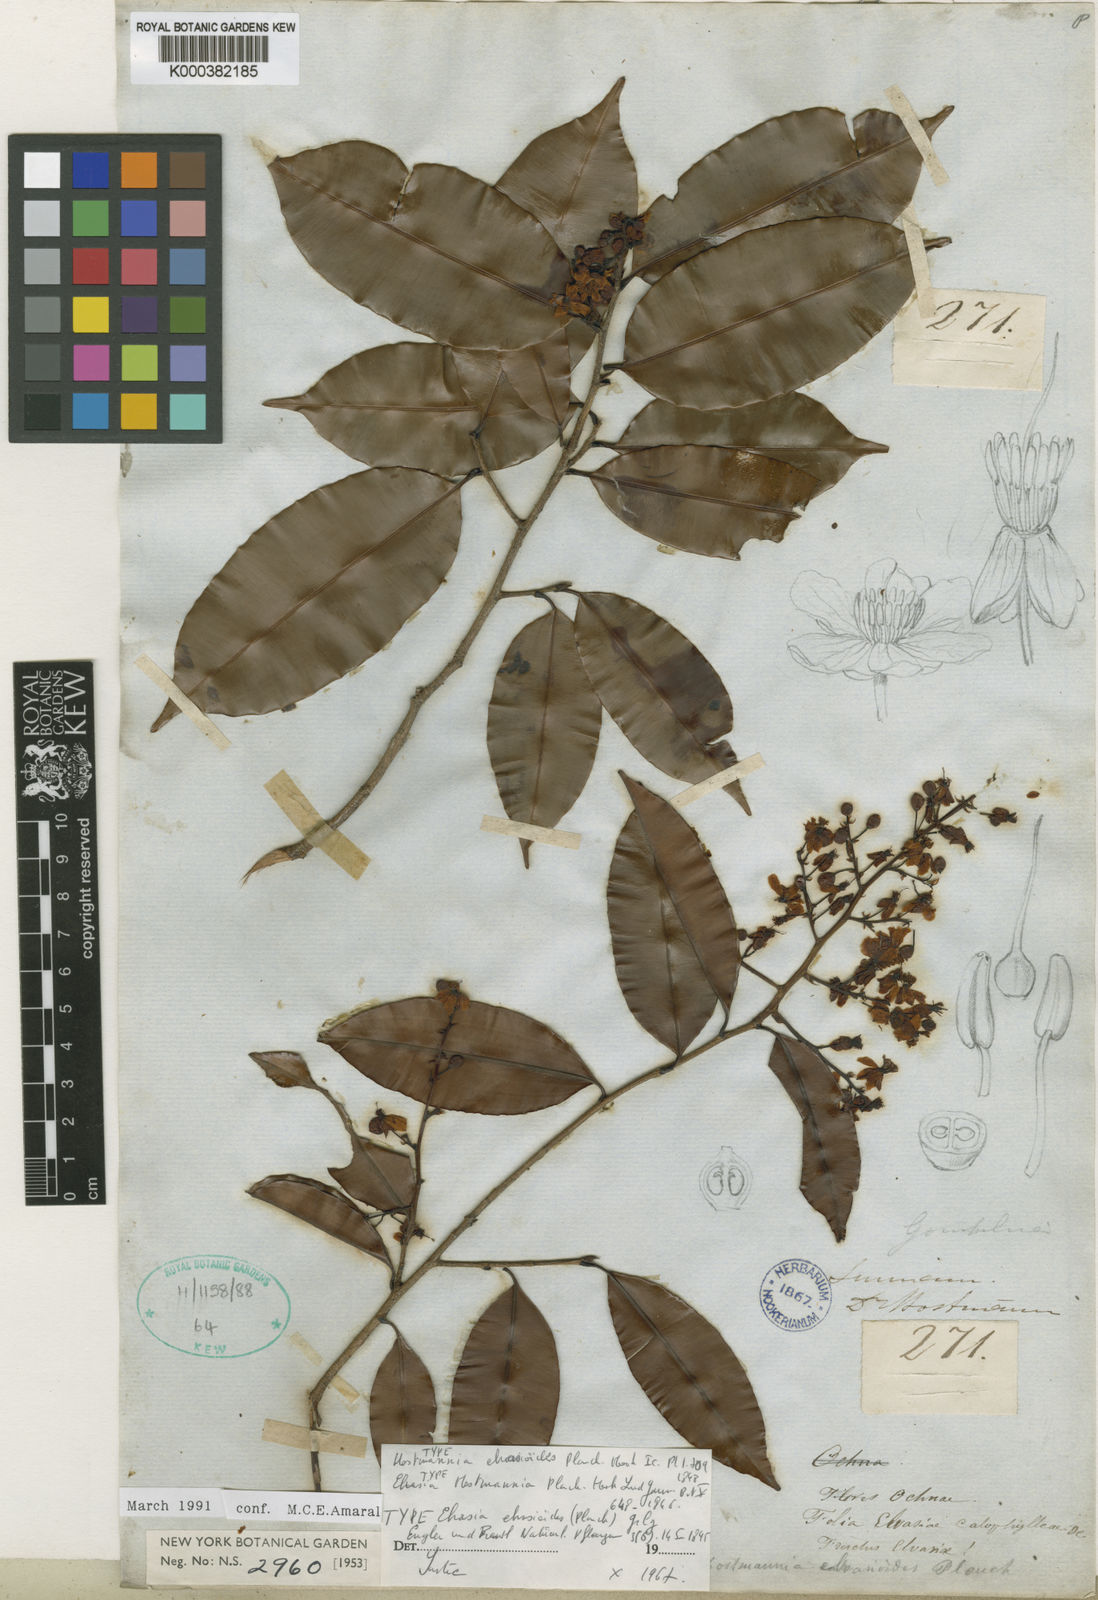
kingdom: Plantae
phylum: Tracheophyta
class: Magnoliopsida
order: Malpighiales
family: Ochnaceae
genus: Elvasia
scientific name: Elvasia elvasioides
